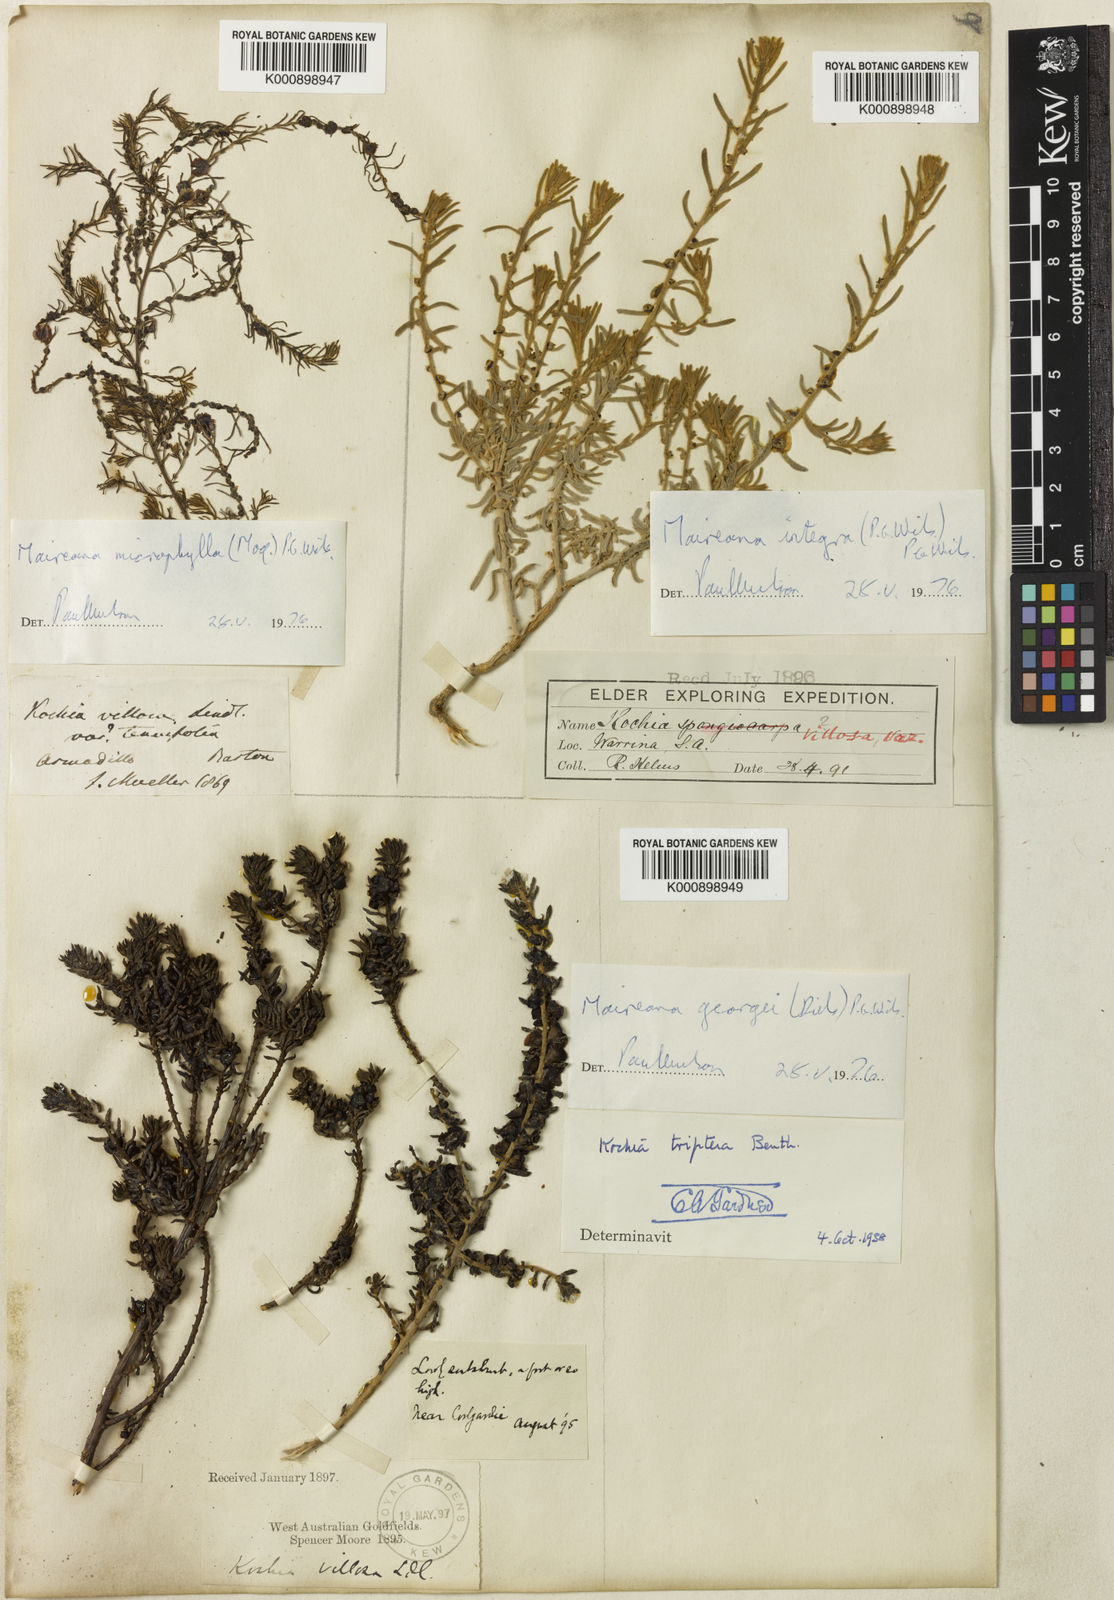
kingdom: Plantae
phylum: Tracheophyta
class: Magnoliopsida
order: Caryophyllales
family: Amaranthaceae
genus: Maireana
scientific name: Maireana villosa
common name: Silky bluebush
